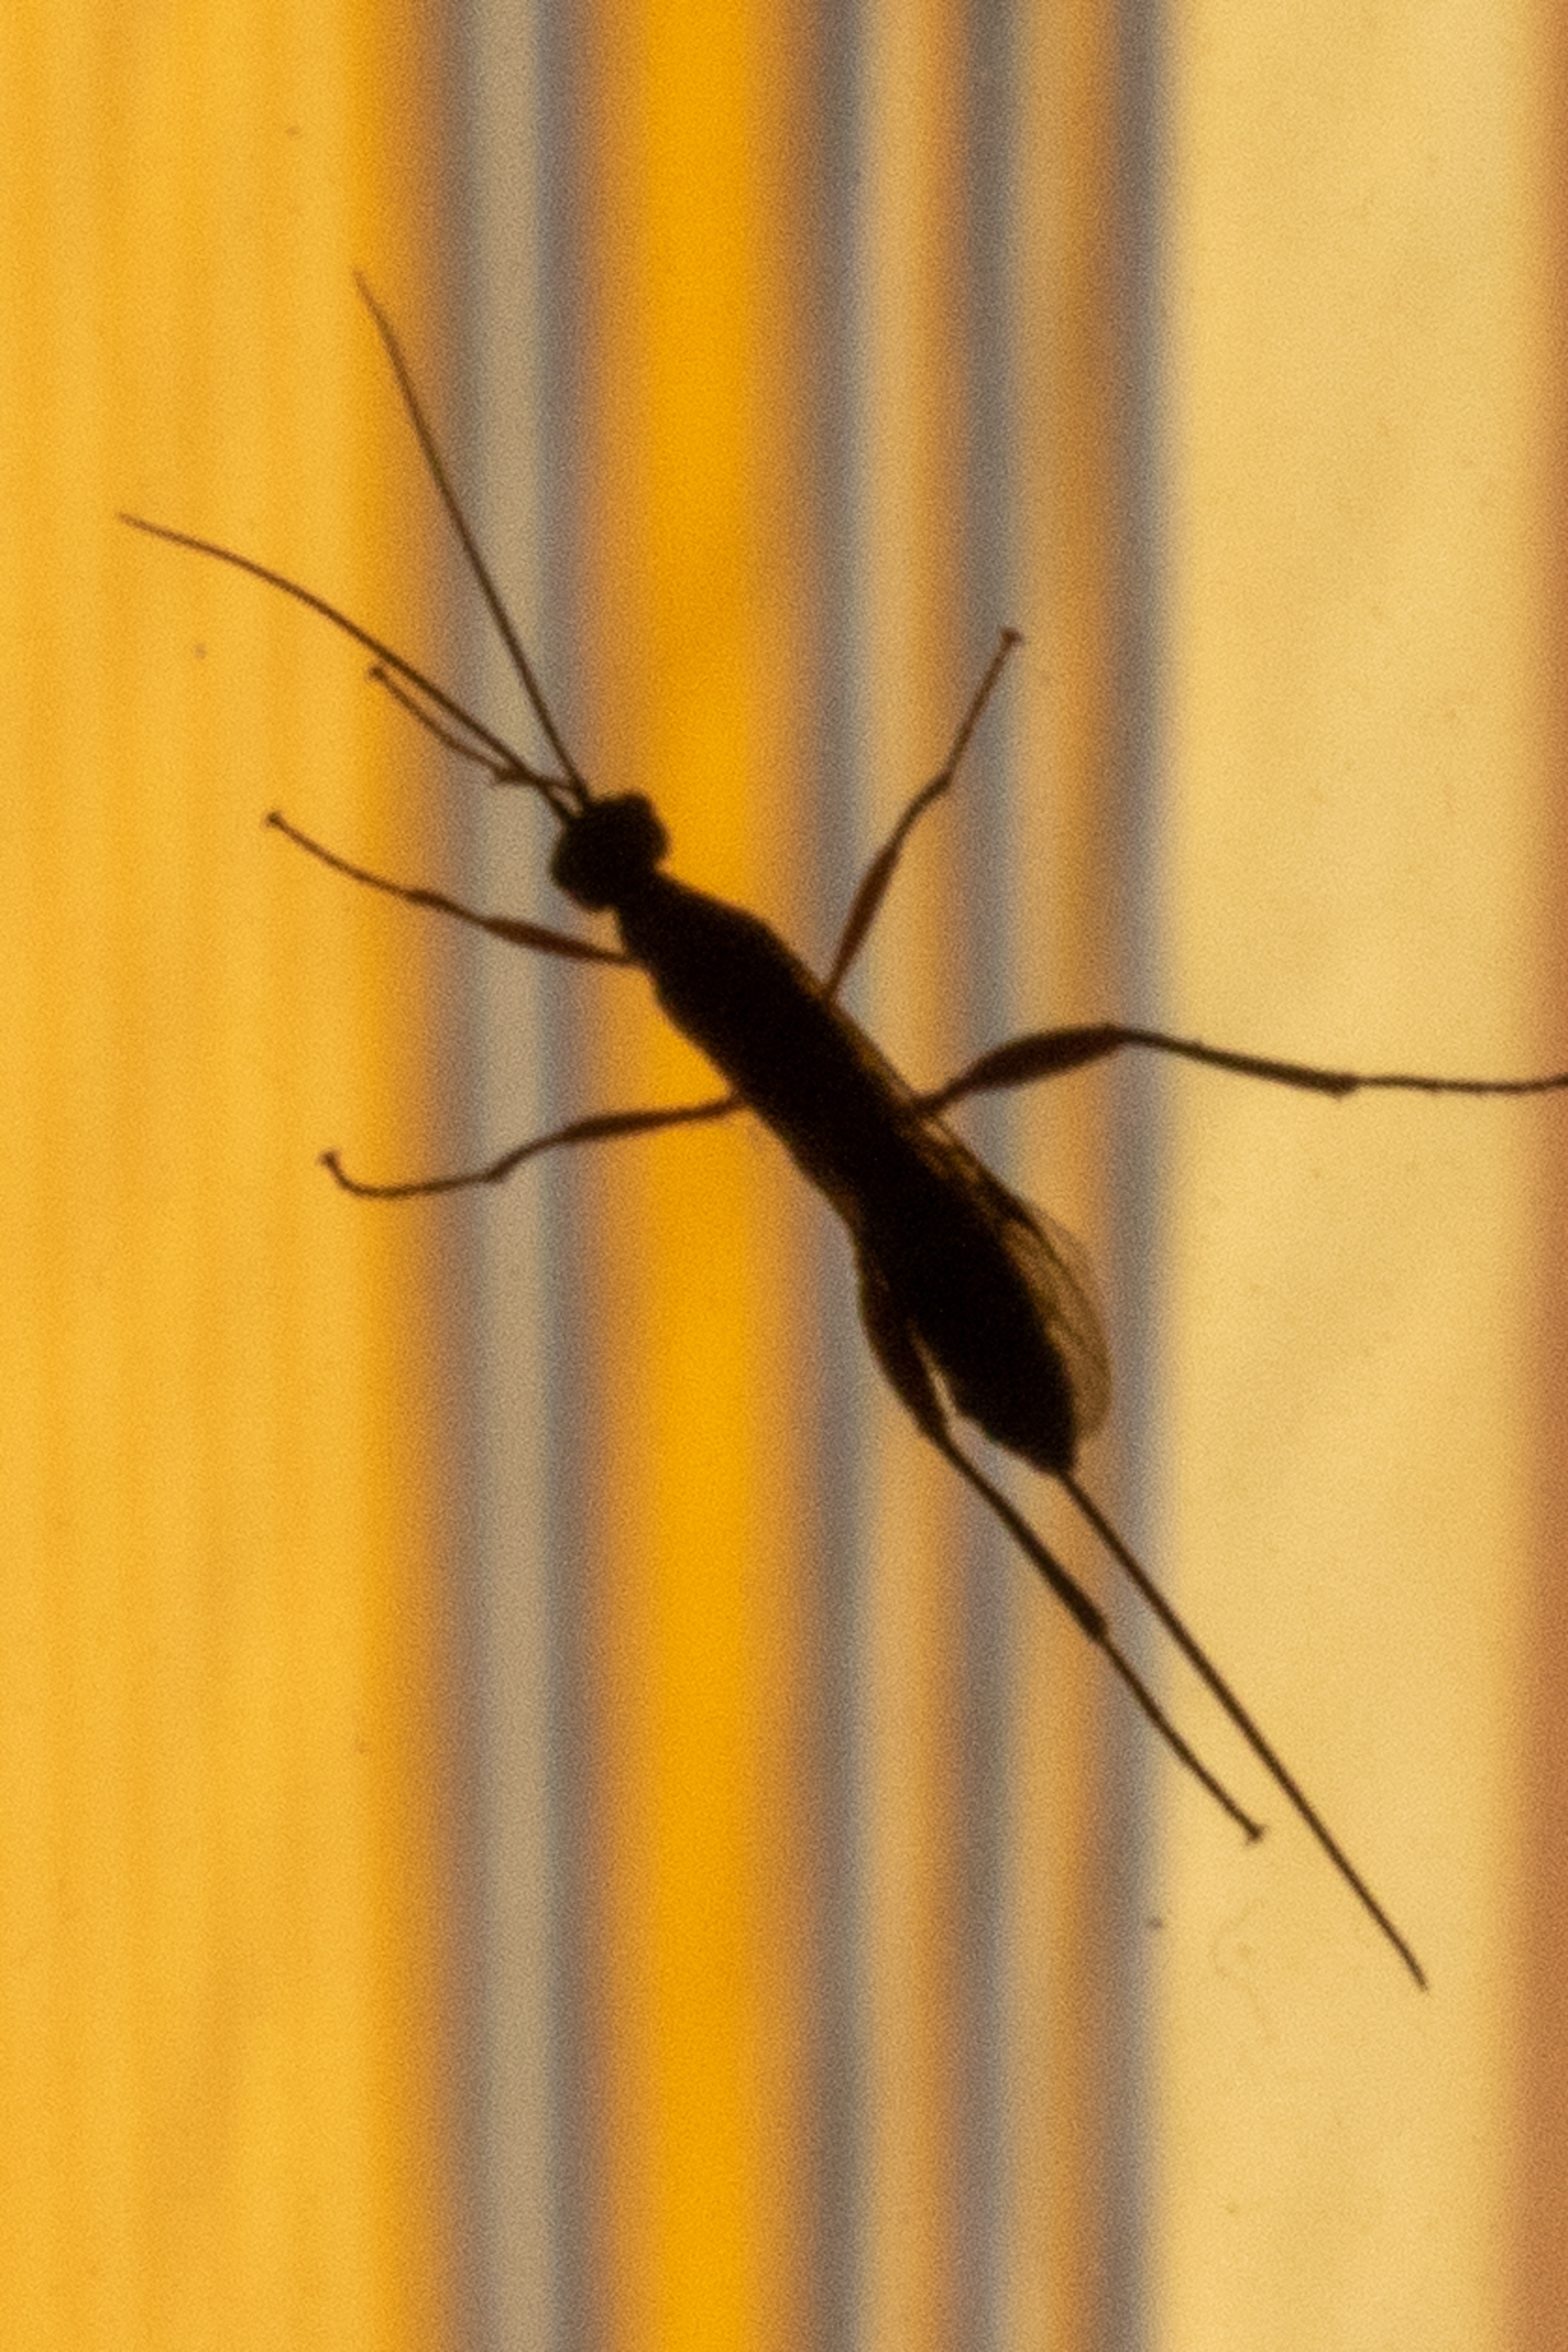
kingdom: Animalia
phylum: Arthropoda
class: Insecta
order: Hymenoptera
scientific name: Hymenoptera
